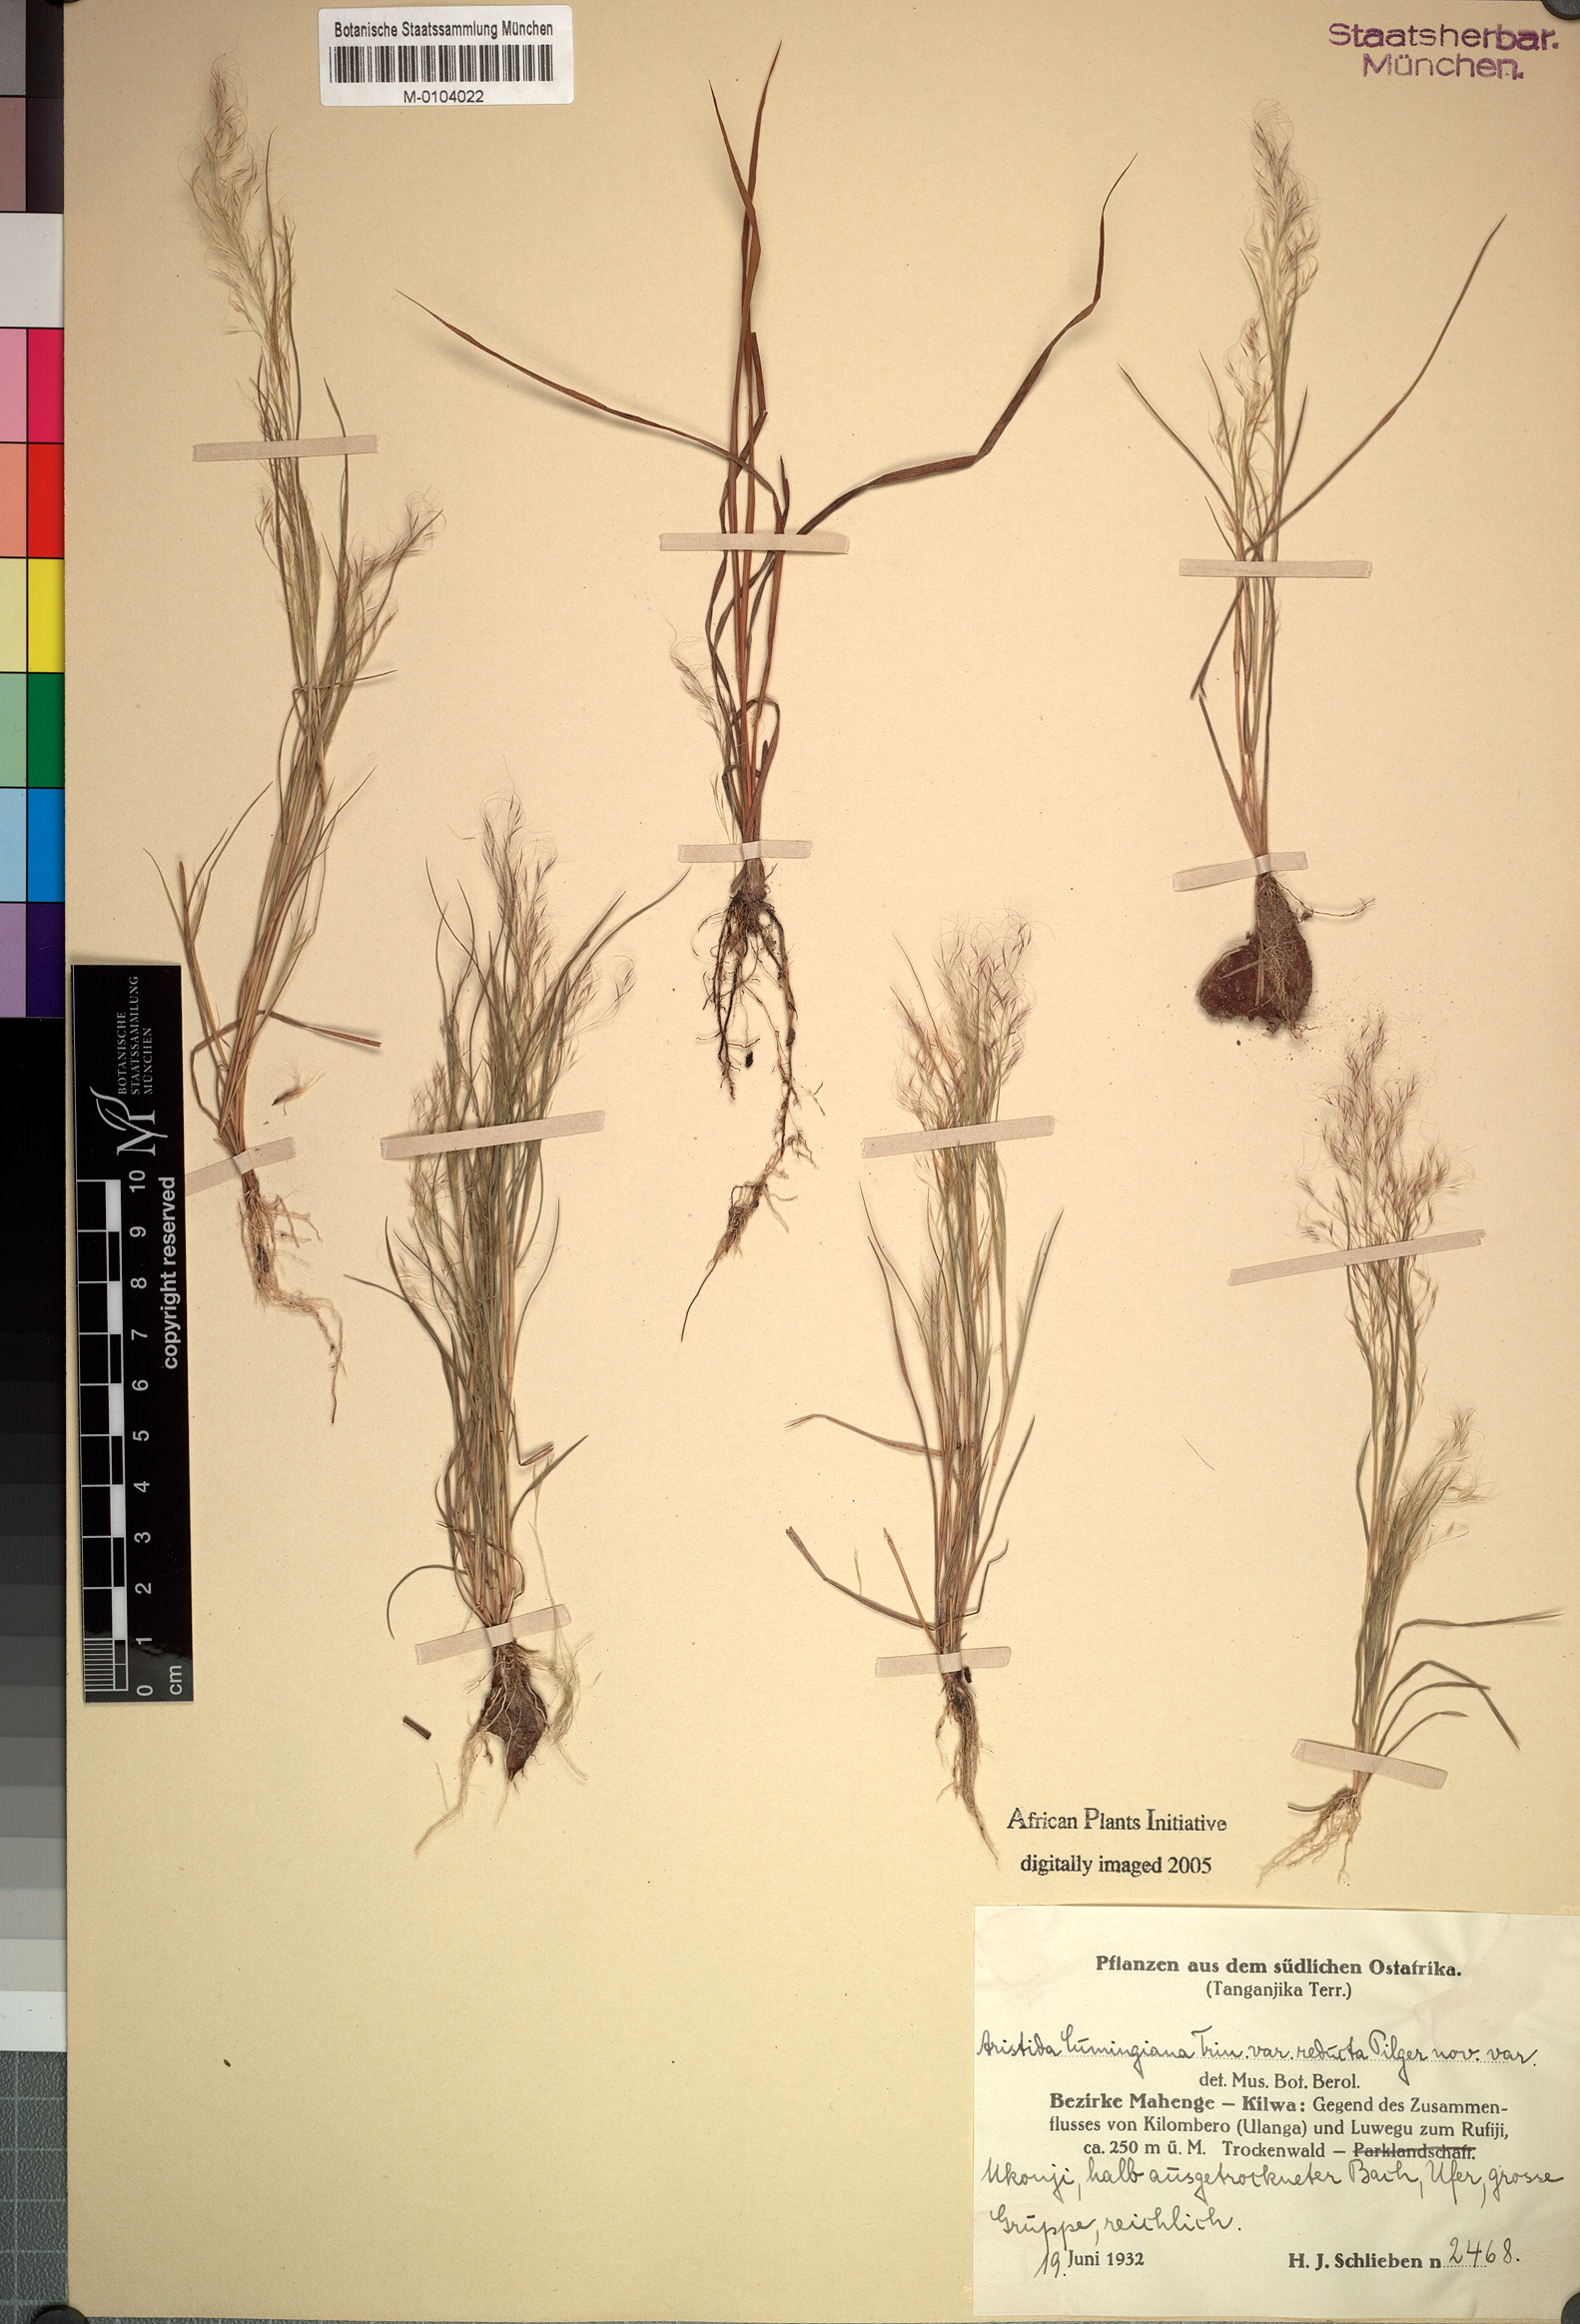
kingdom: Plantae
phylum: Tracheophyta
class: Liliopsida
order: Poales
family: Poaceae
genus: Aristida
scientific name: Aristida diminuta
